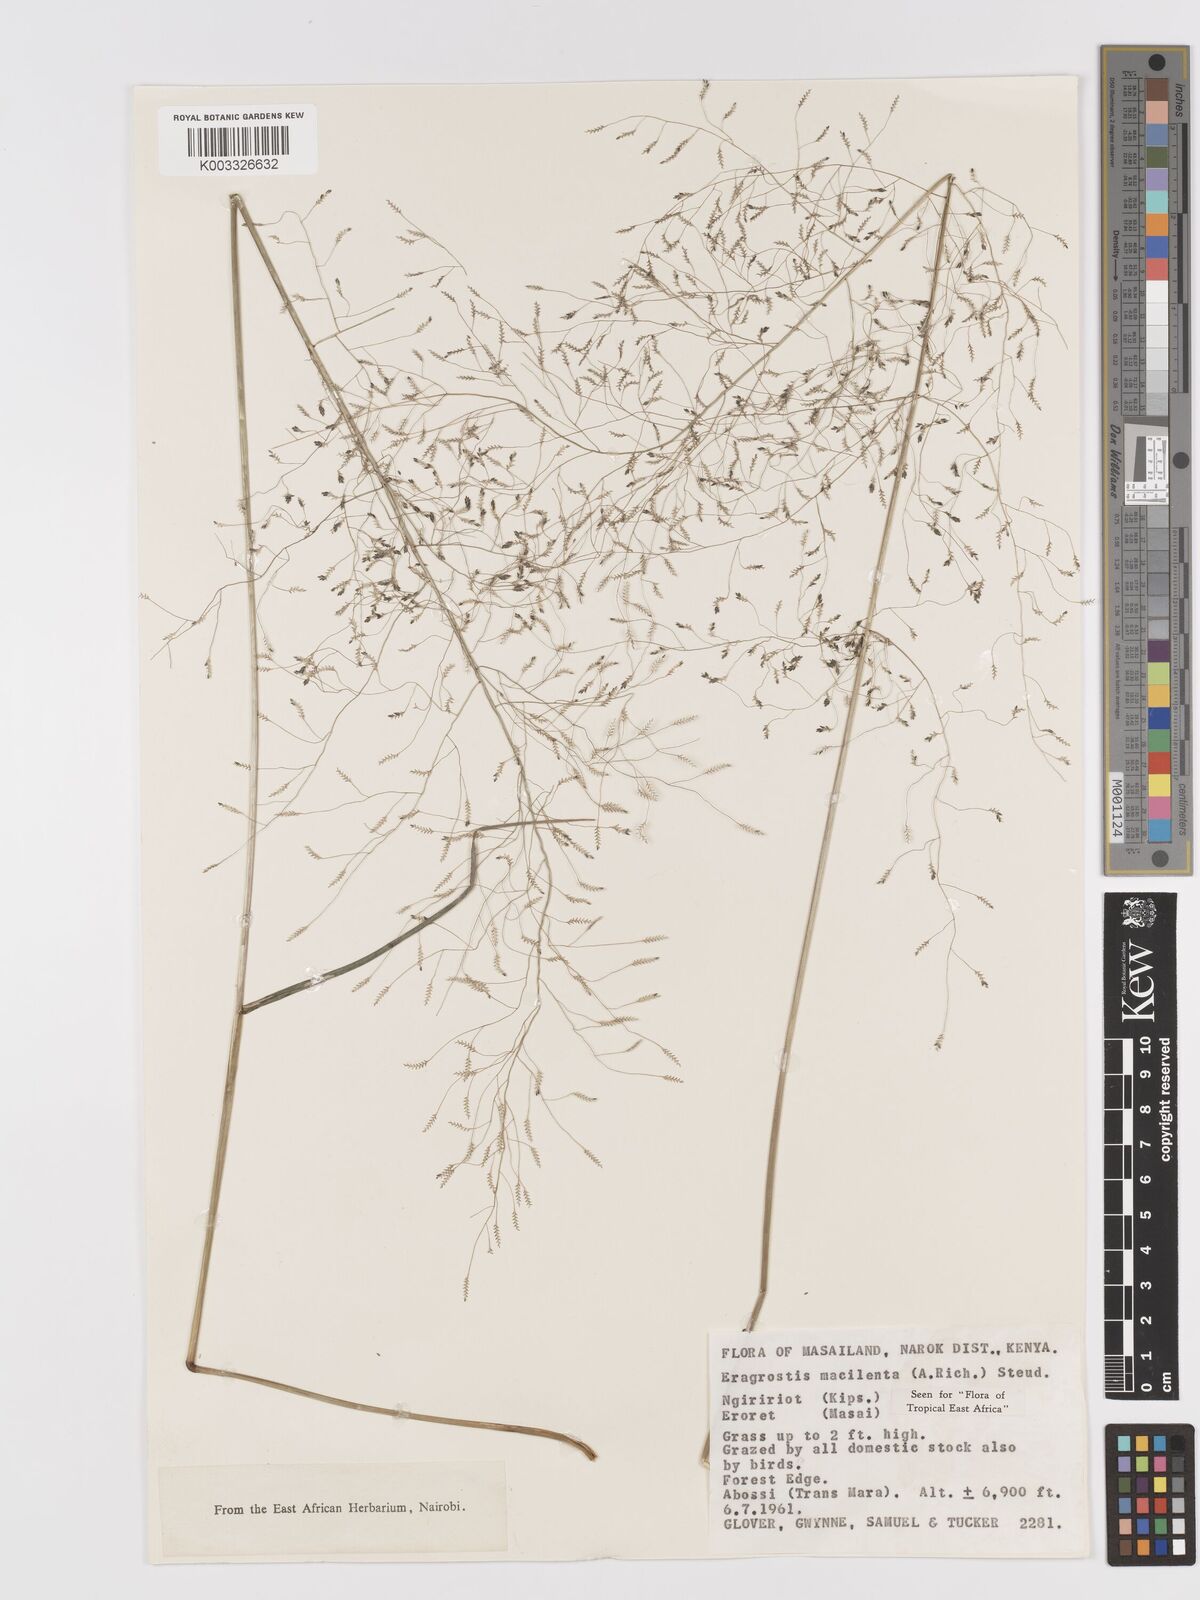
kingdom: Plantae
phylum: Tracheophyta
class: Liliopsida
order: Poales
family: Poaceae
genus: Eragrostis
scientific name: Eragrostis macilenta
